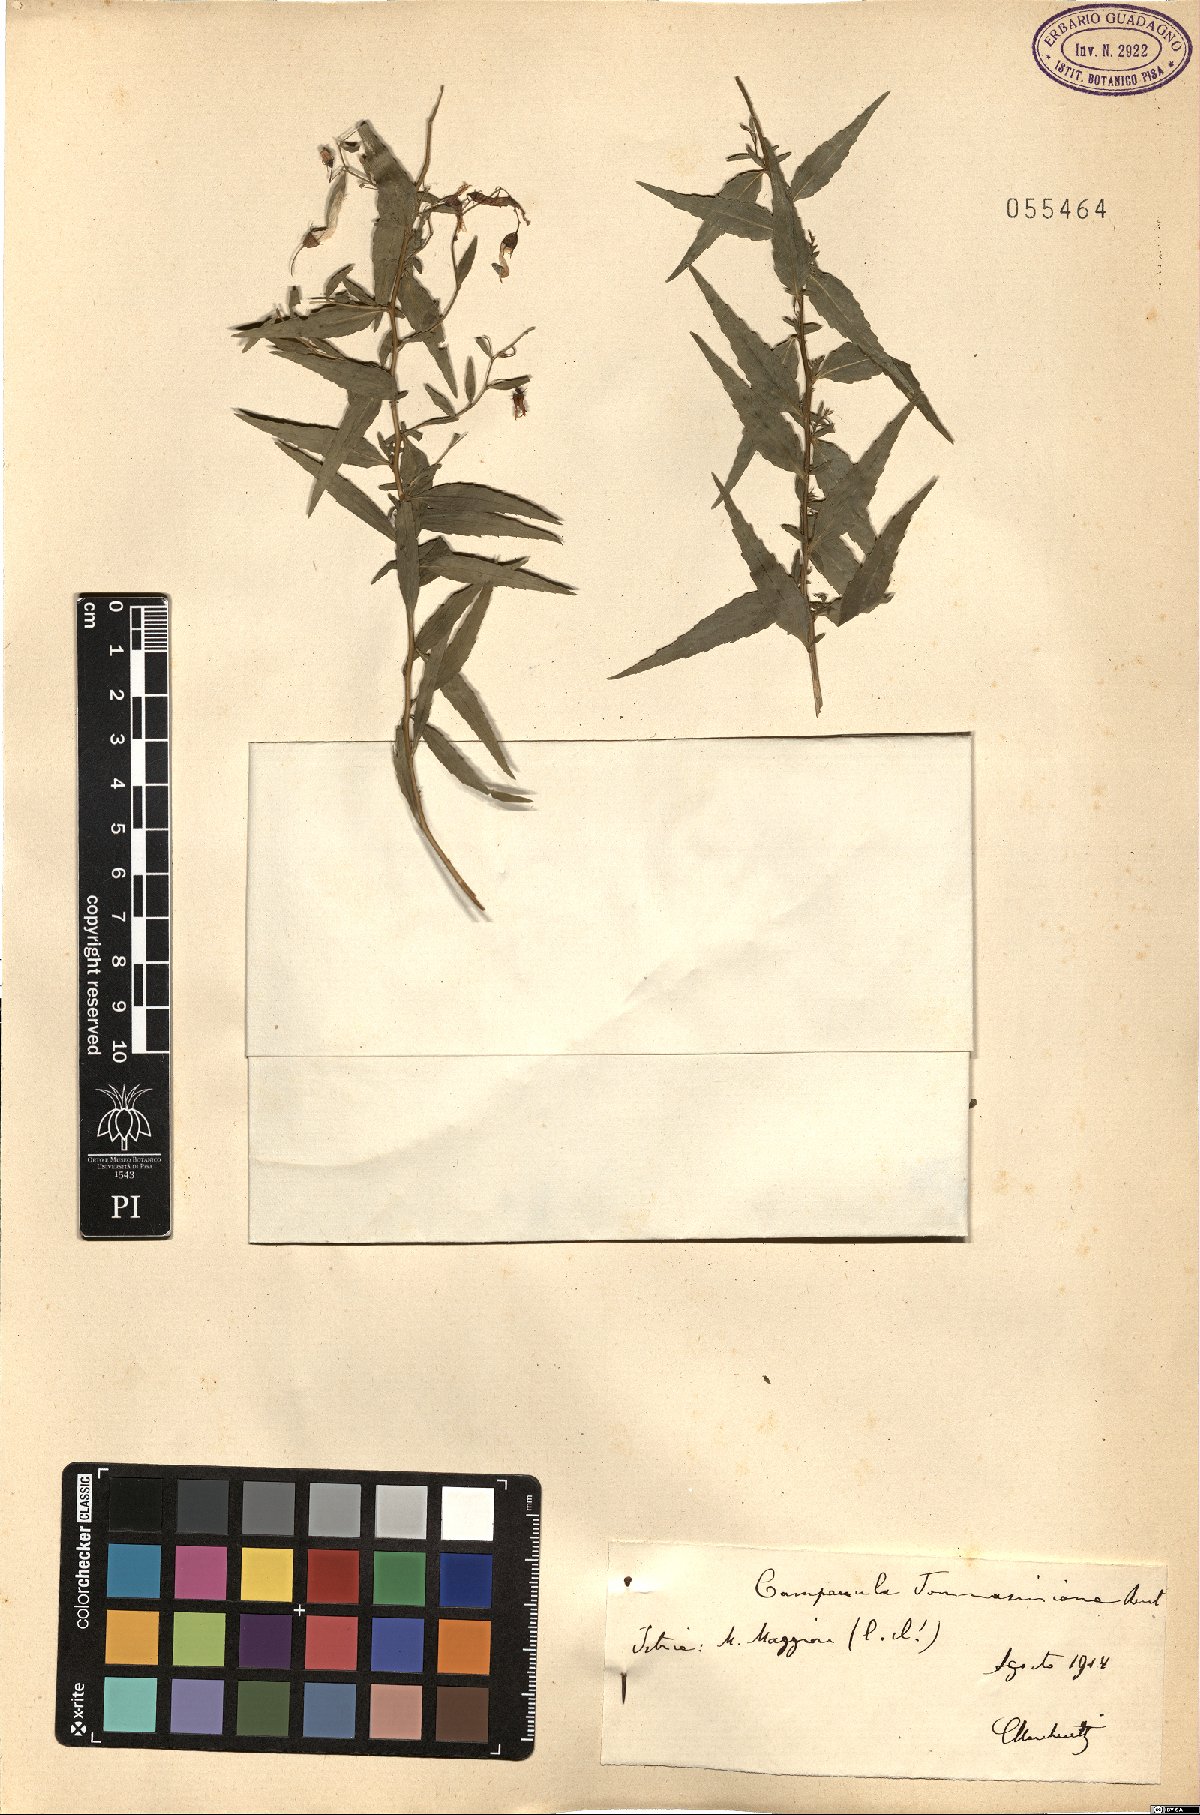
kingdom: Plantae
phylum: Tracheophyta
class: Magnoliopsida
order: Asterales
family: Campanulaceae
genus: Campanula
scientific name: Campanula tommasiniana
